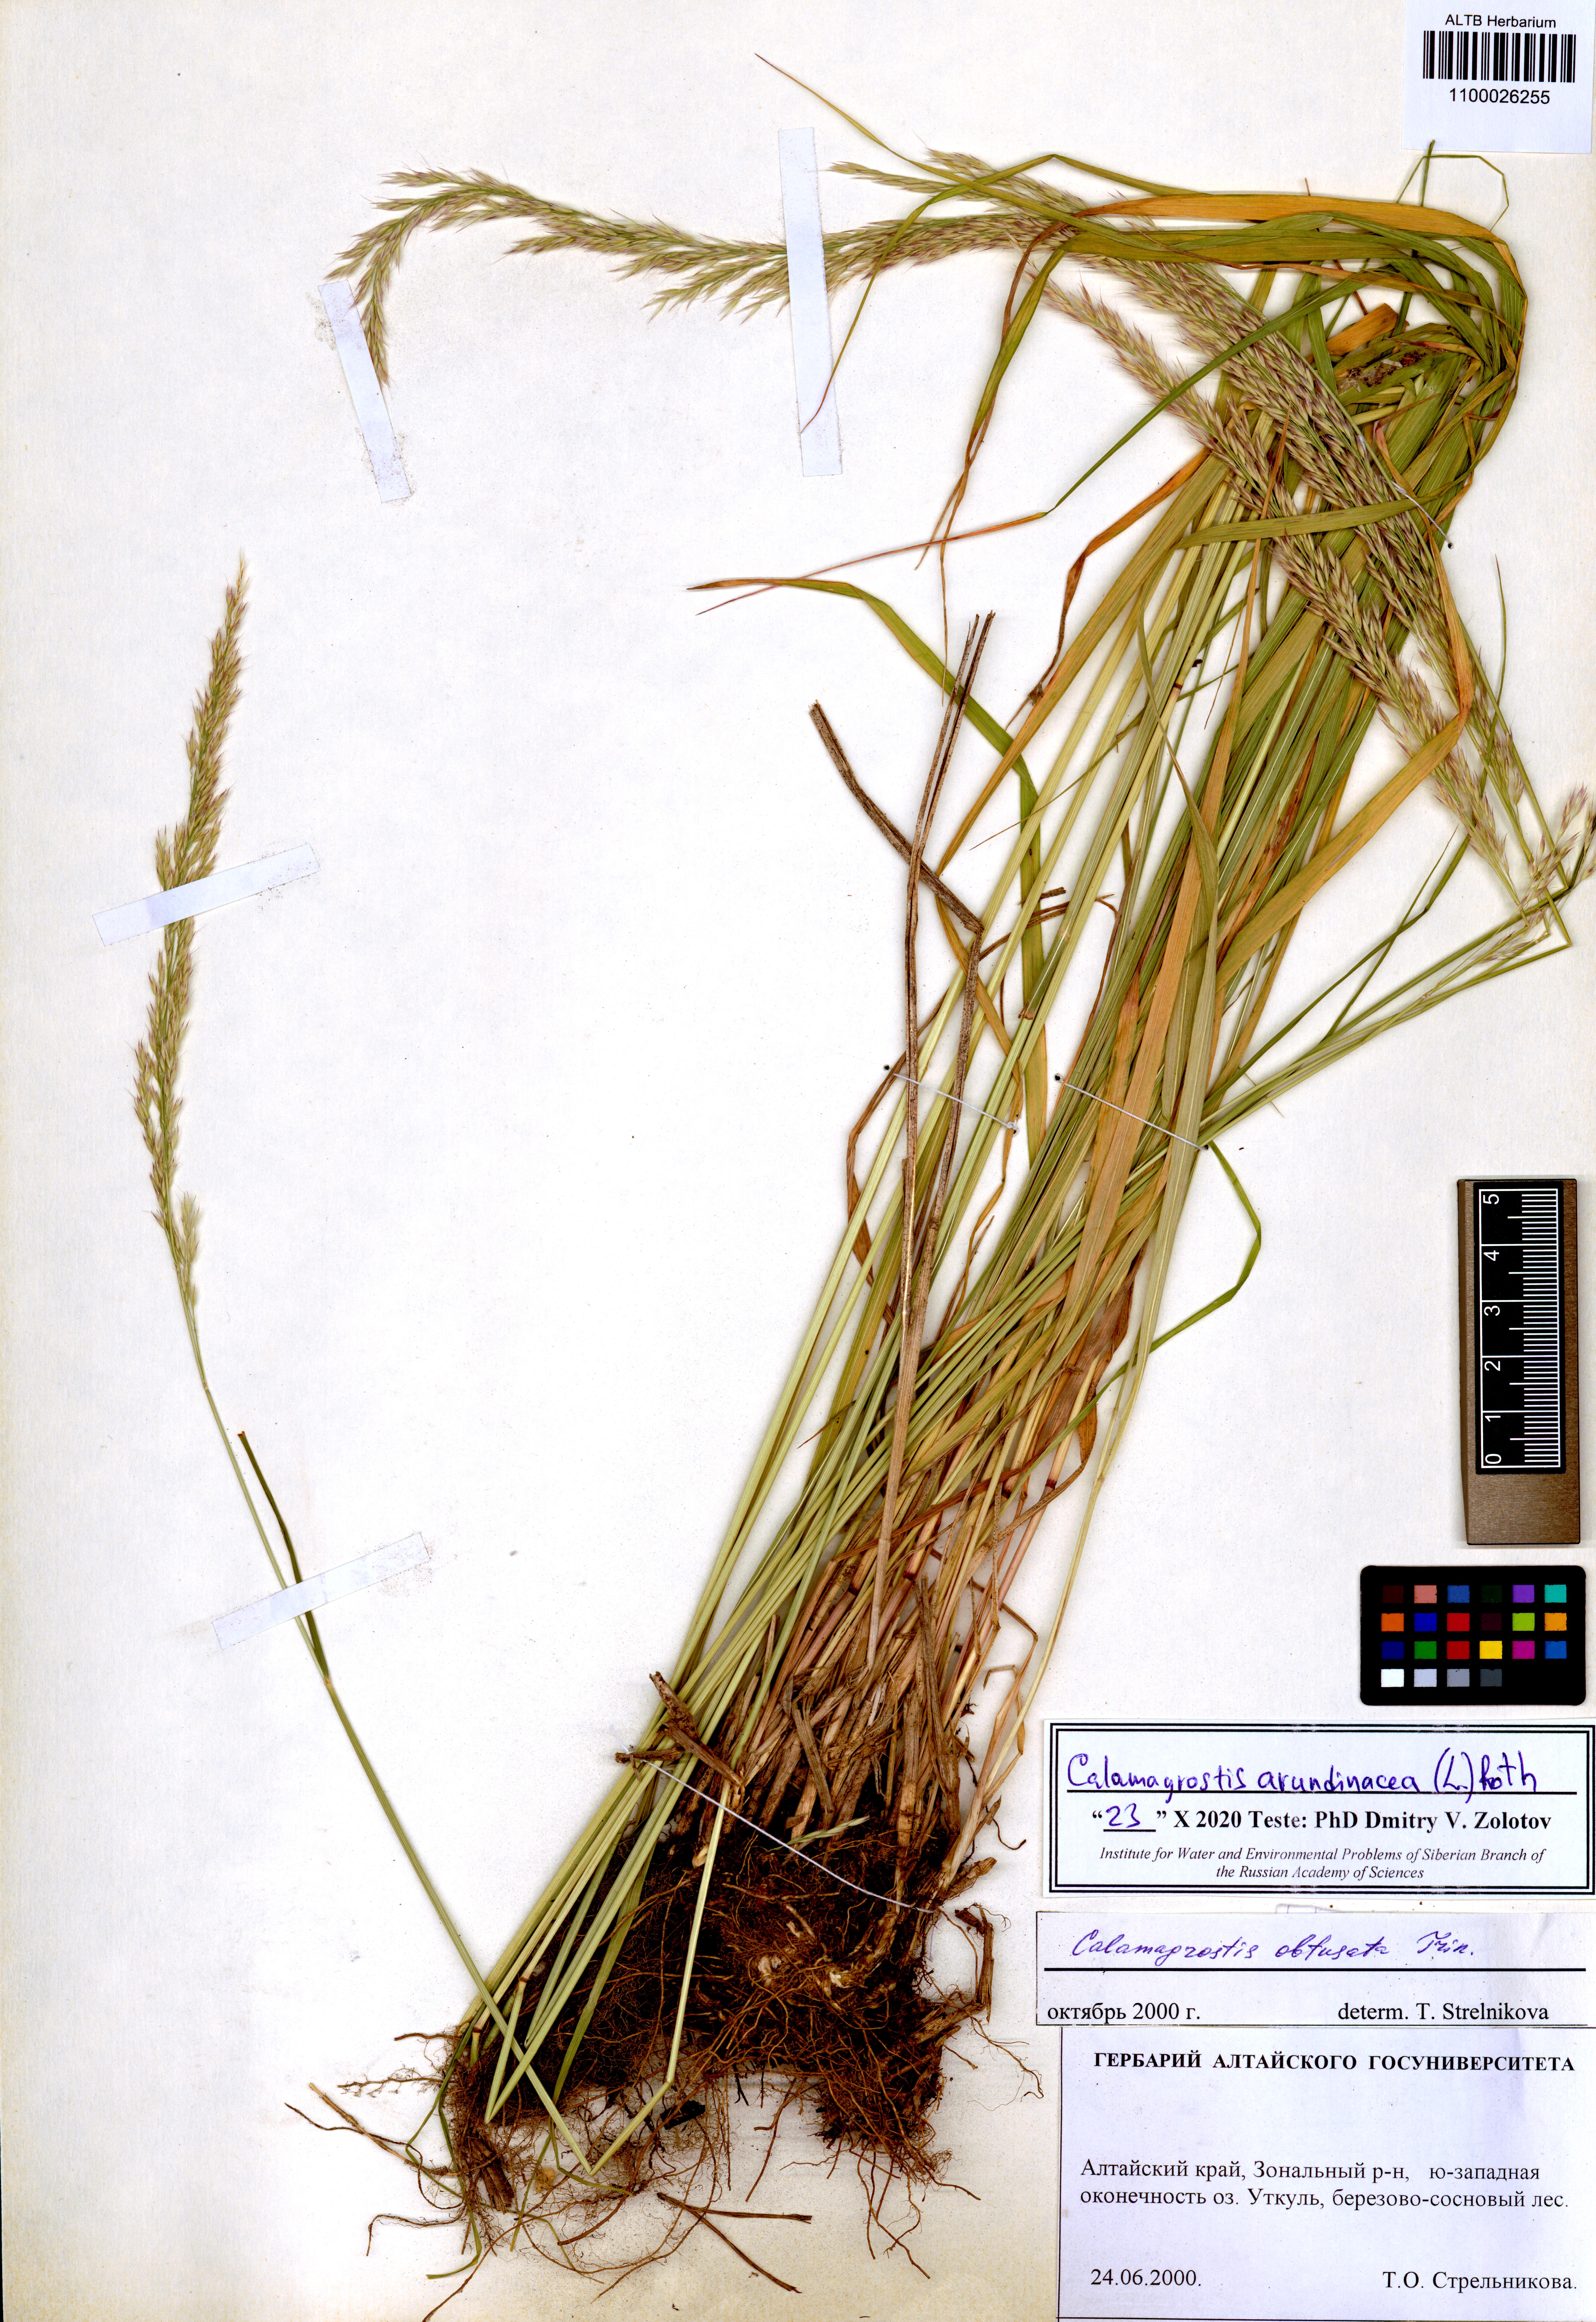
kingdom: Plantae
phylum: Tracheophyta
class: Liliopsida
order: Poales
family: Poaceae
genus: Calamagrostis
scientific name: Calamagrostis arundinacea
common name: Metskastik
